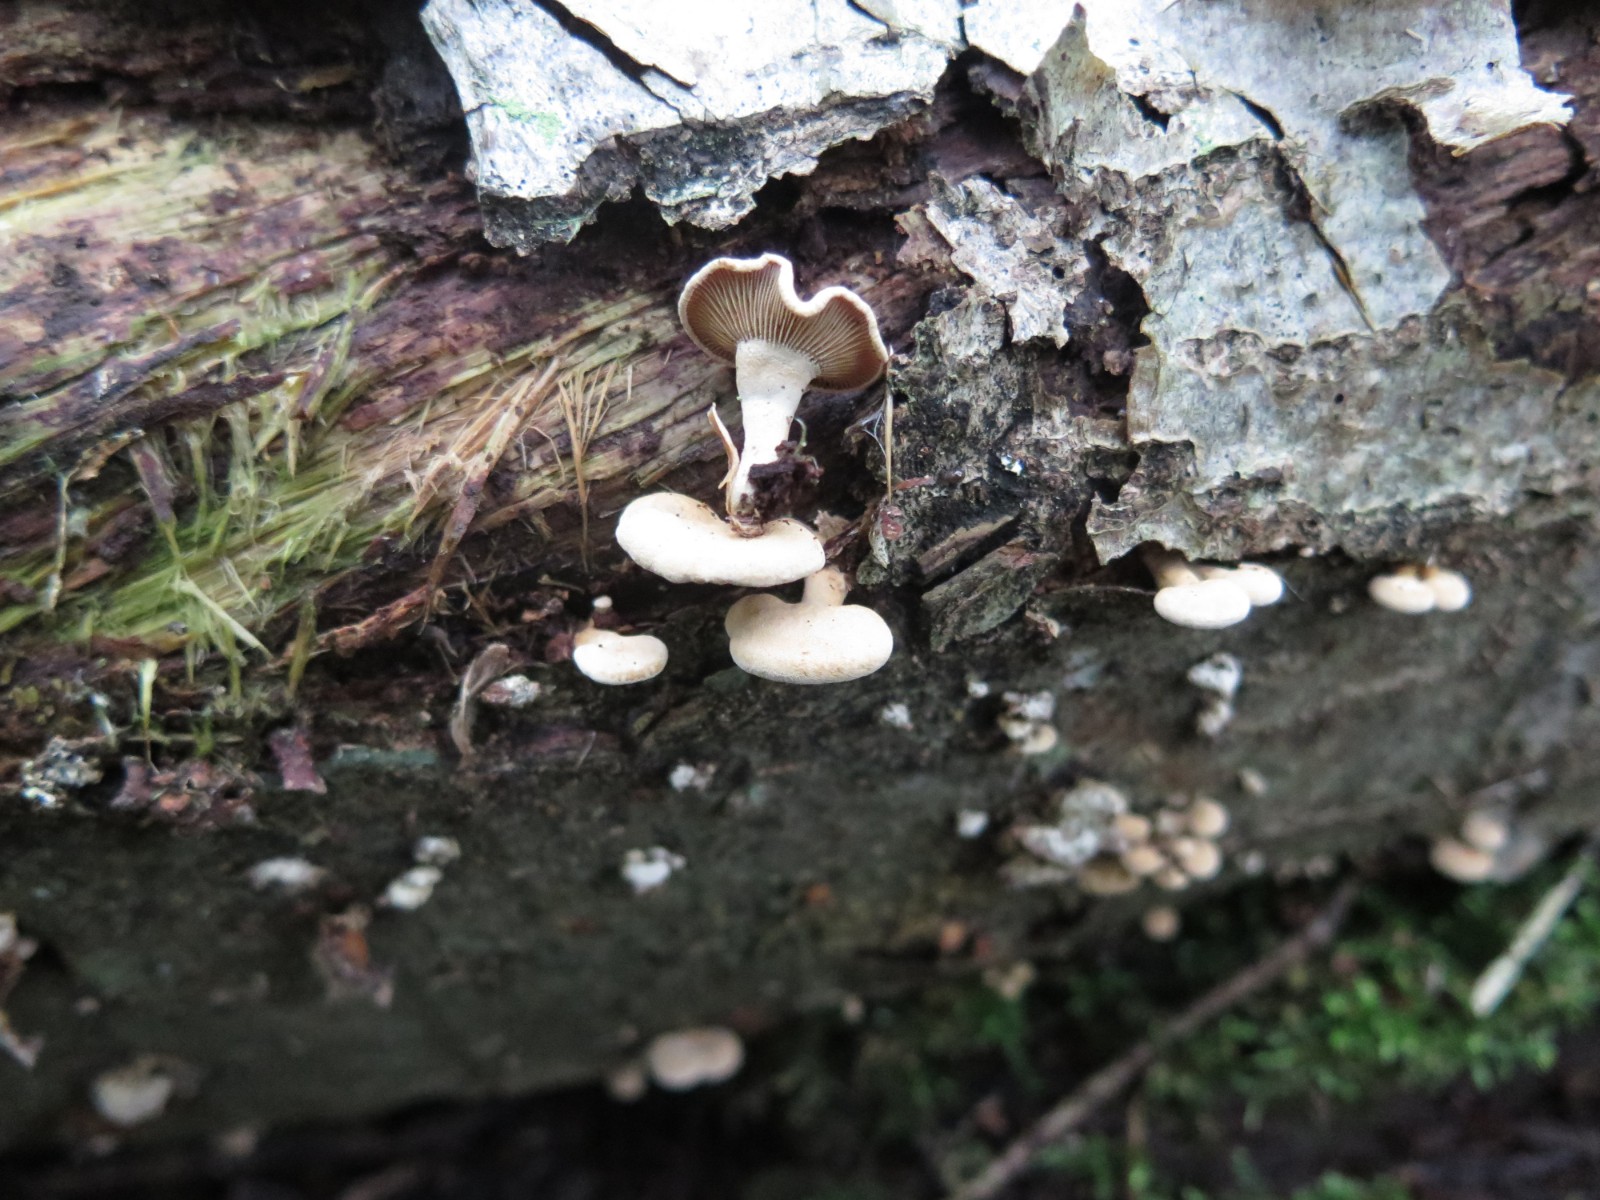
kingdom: Fungi
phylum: Basidiomycota
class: Agaricomycetes
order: Agaricales
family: Mycenaceae
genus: Panellus
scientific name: Panellus stipticus
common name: kliddet epaulethat
